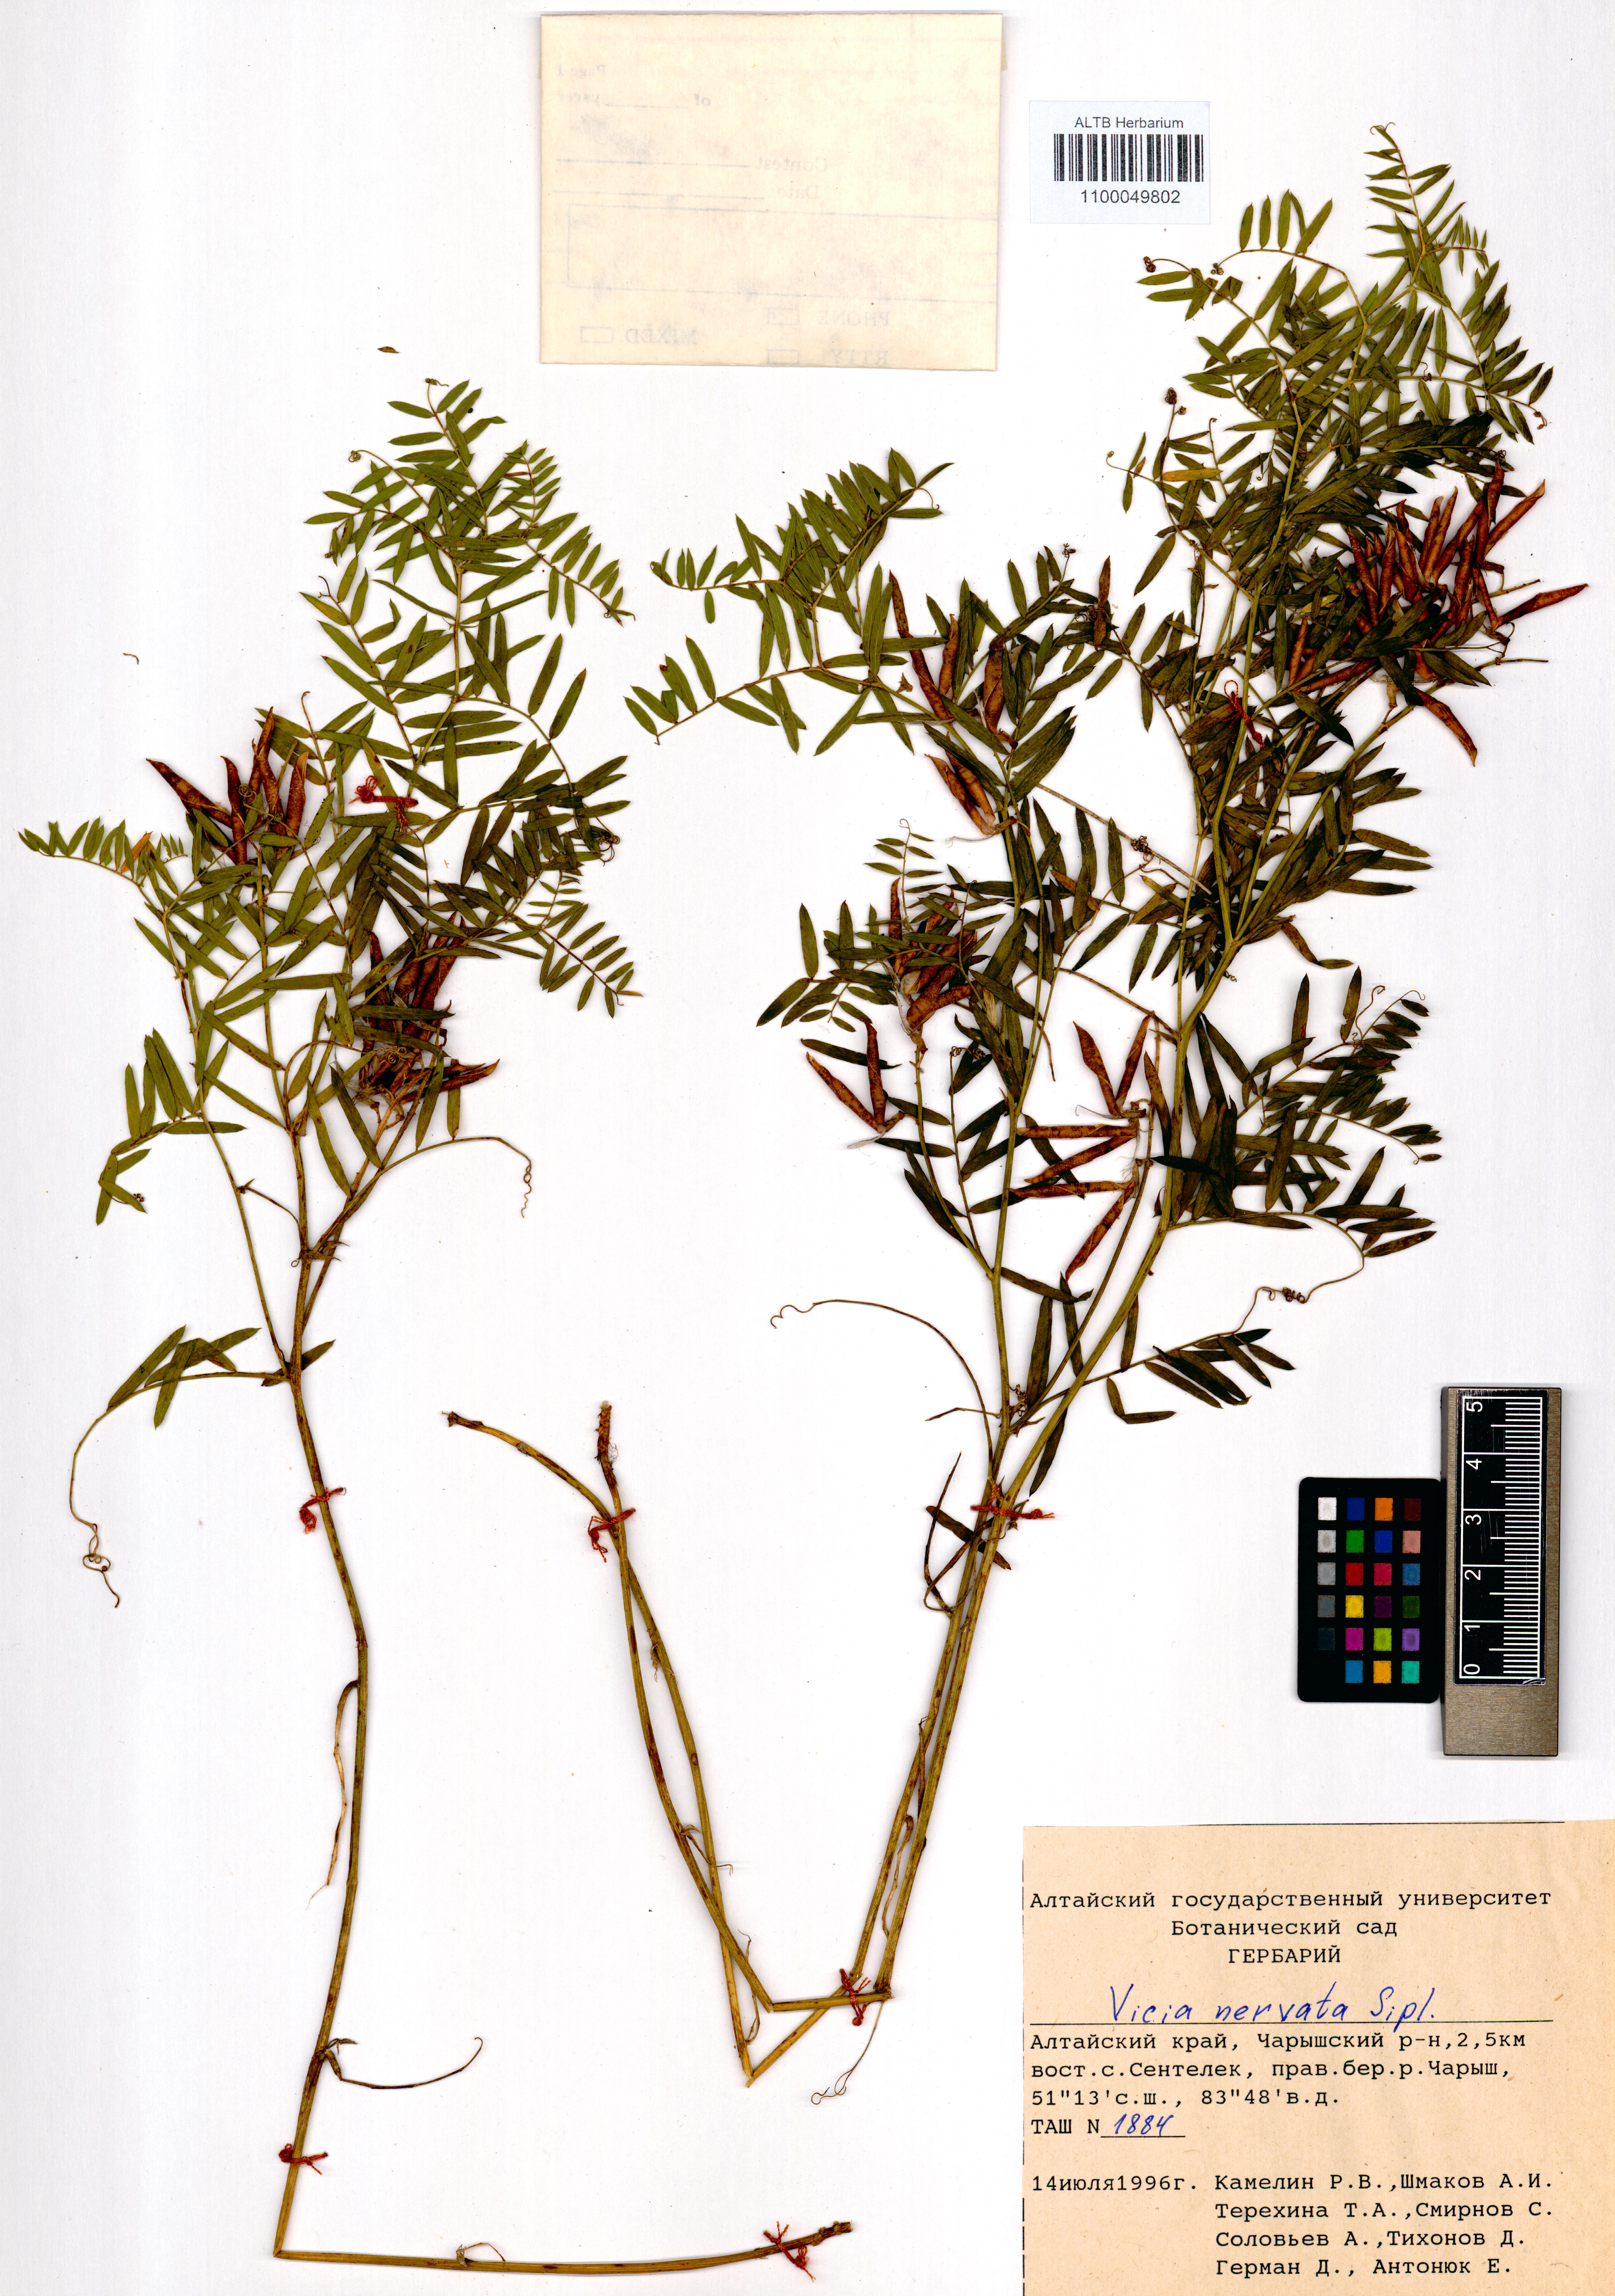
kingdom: Plantae
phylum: Tracheophyta
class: Magnoliopsida
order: Fabales
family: Fabaceae
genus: Vicia
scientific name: Vicia multicaulis
